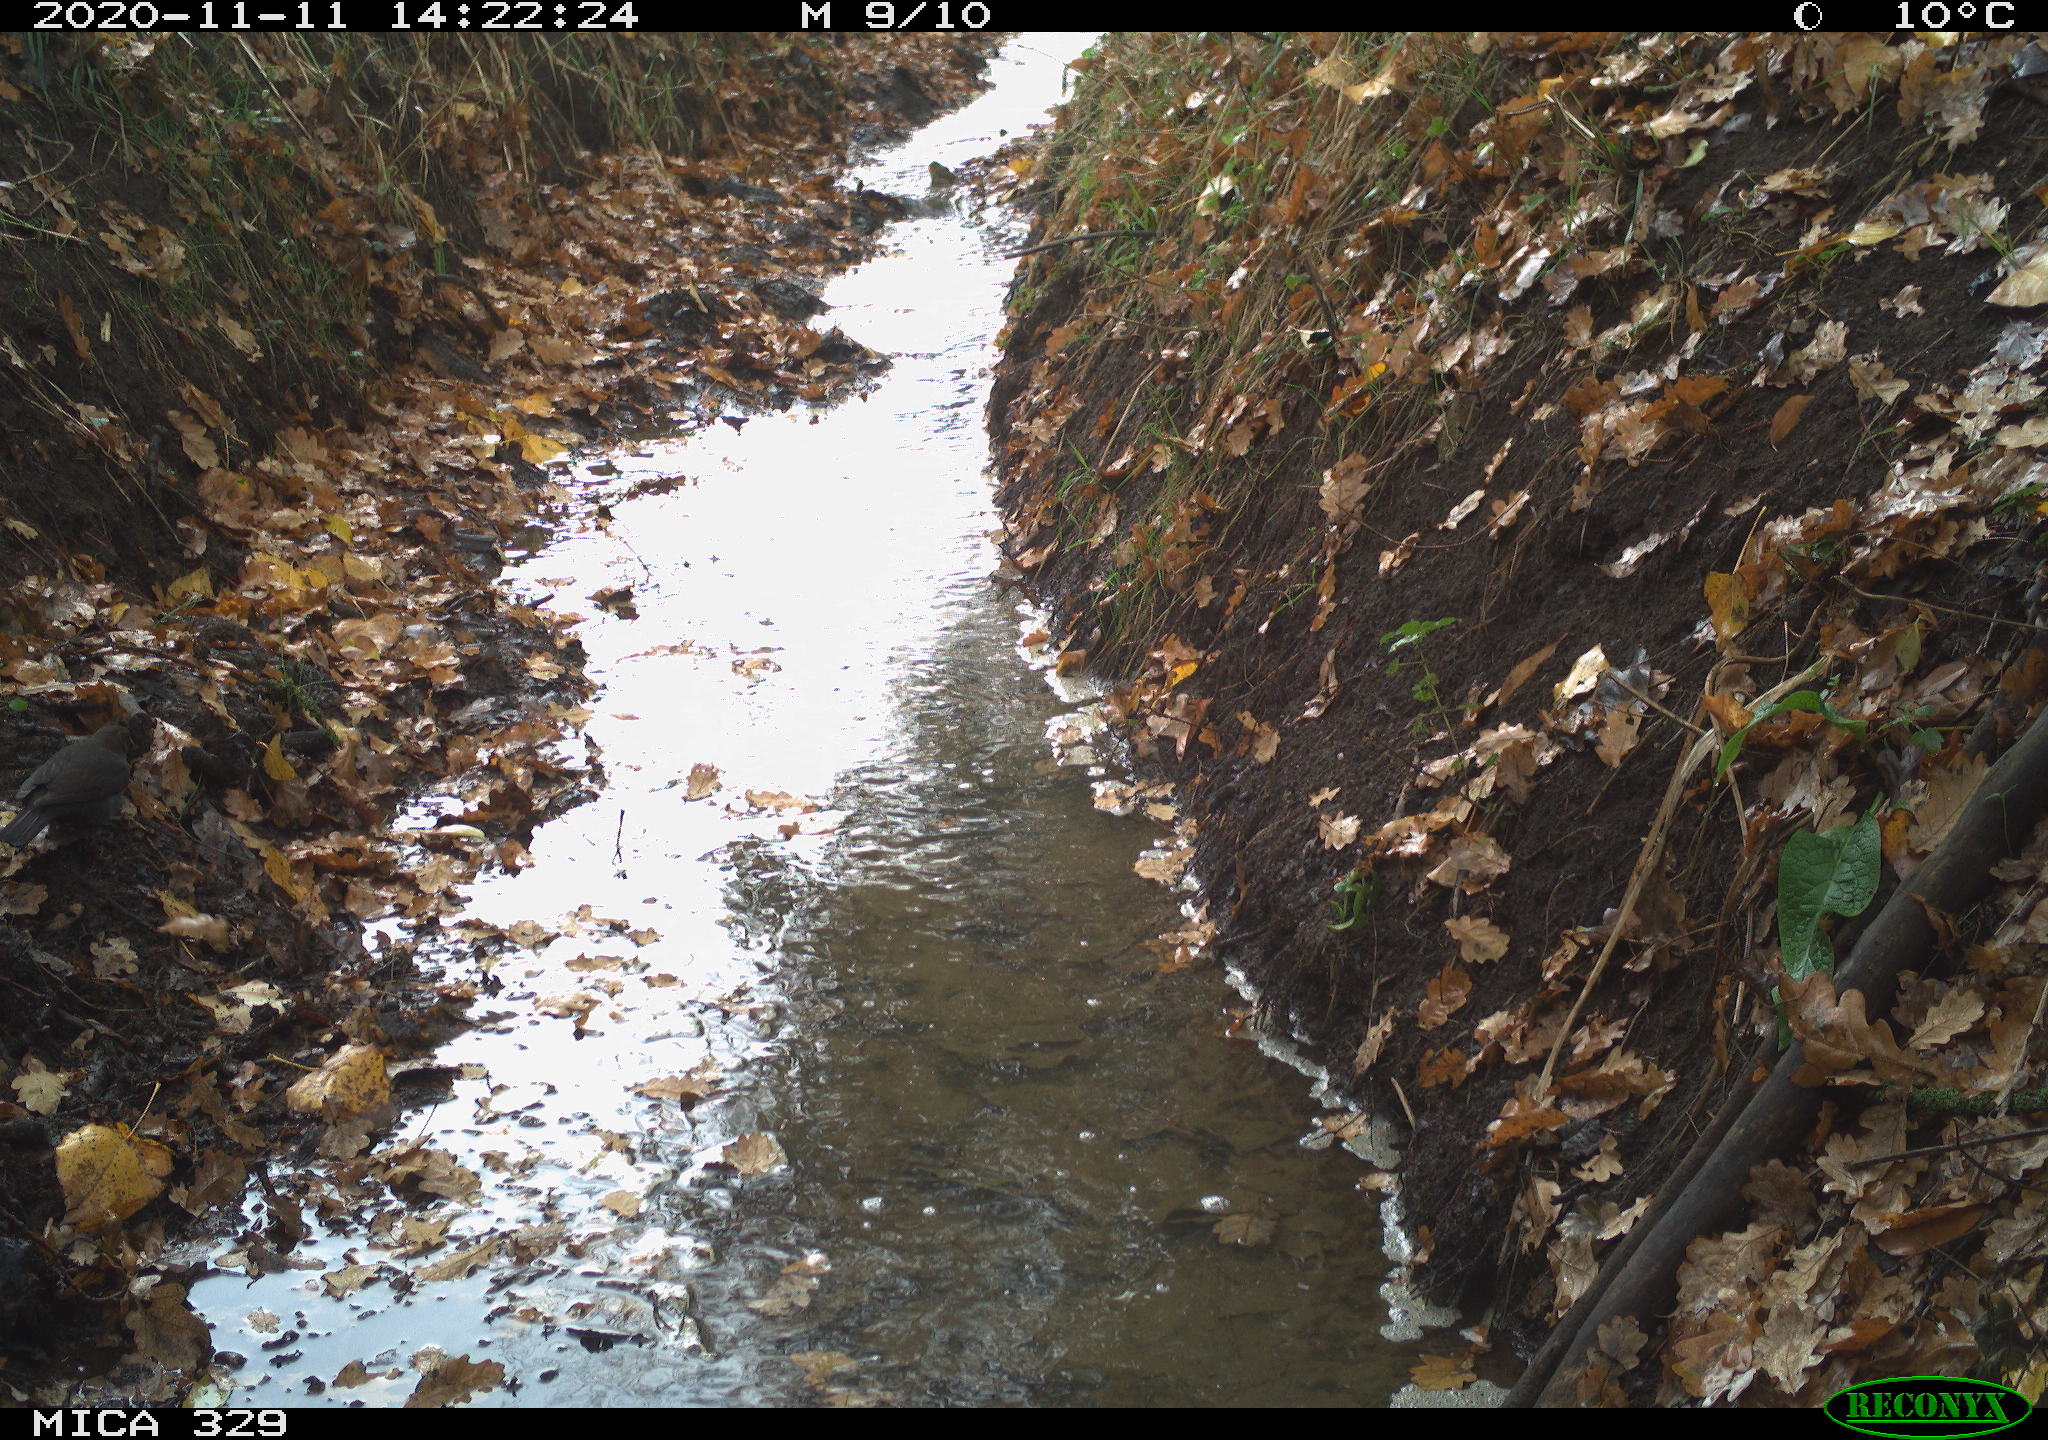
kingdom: Animalia
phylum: Chordata
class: Aves
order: Passeriformes
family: Turdidae
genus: Turdus
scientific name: Turdus merula
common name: Common blackbird
